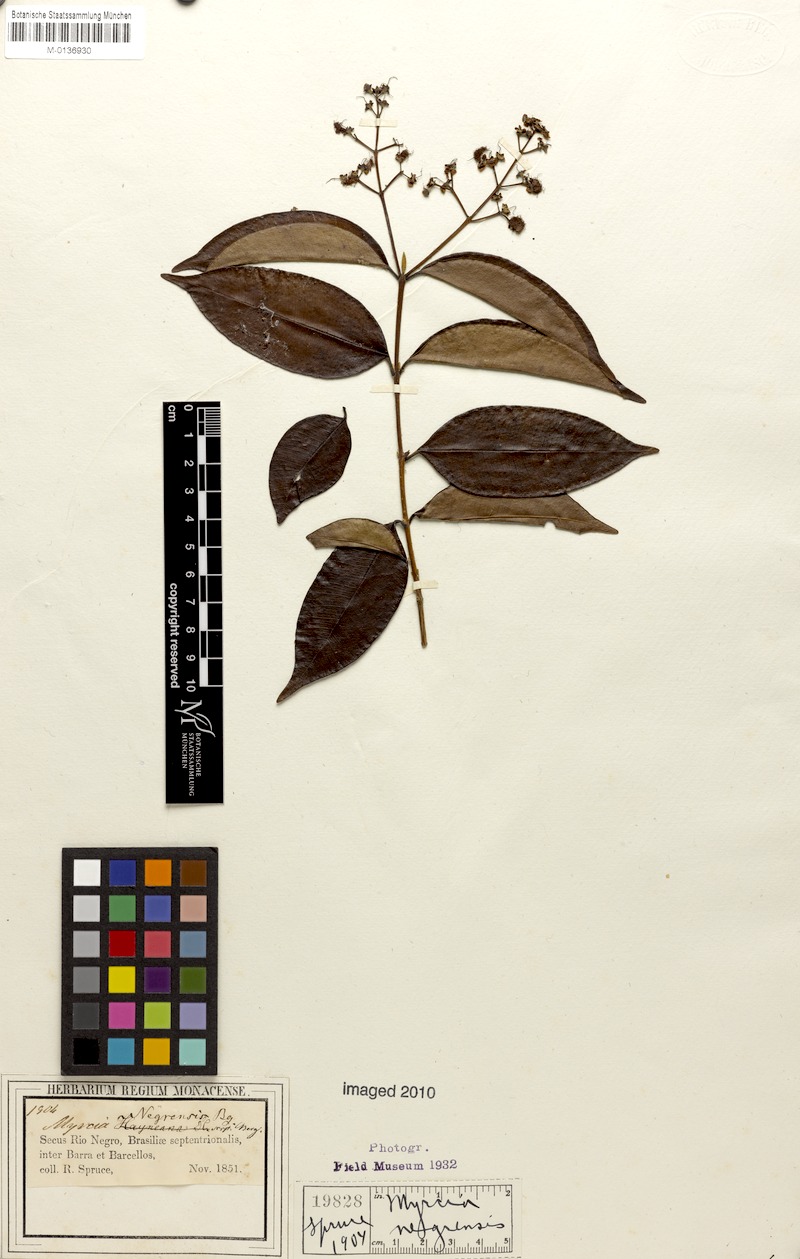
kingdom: Plantae
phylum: Tracheophyta
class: Magnoliopsida
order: Myrtales
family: Myrtaceae
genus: Myrcia
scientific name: Myrcia splendens
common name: Surinam cherry
